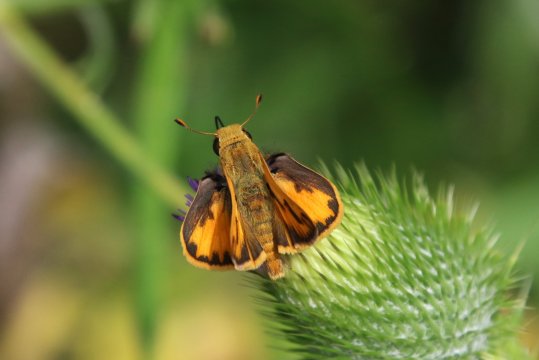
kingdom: Animalia
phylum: Arthropoda
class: Insecta
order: Lepidoptera
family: Hesperiidae
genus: Hylephila
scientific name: Hylephila phyleus
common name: Fiery Skipper
